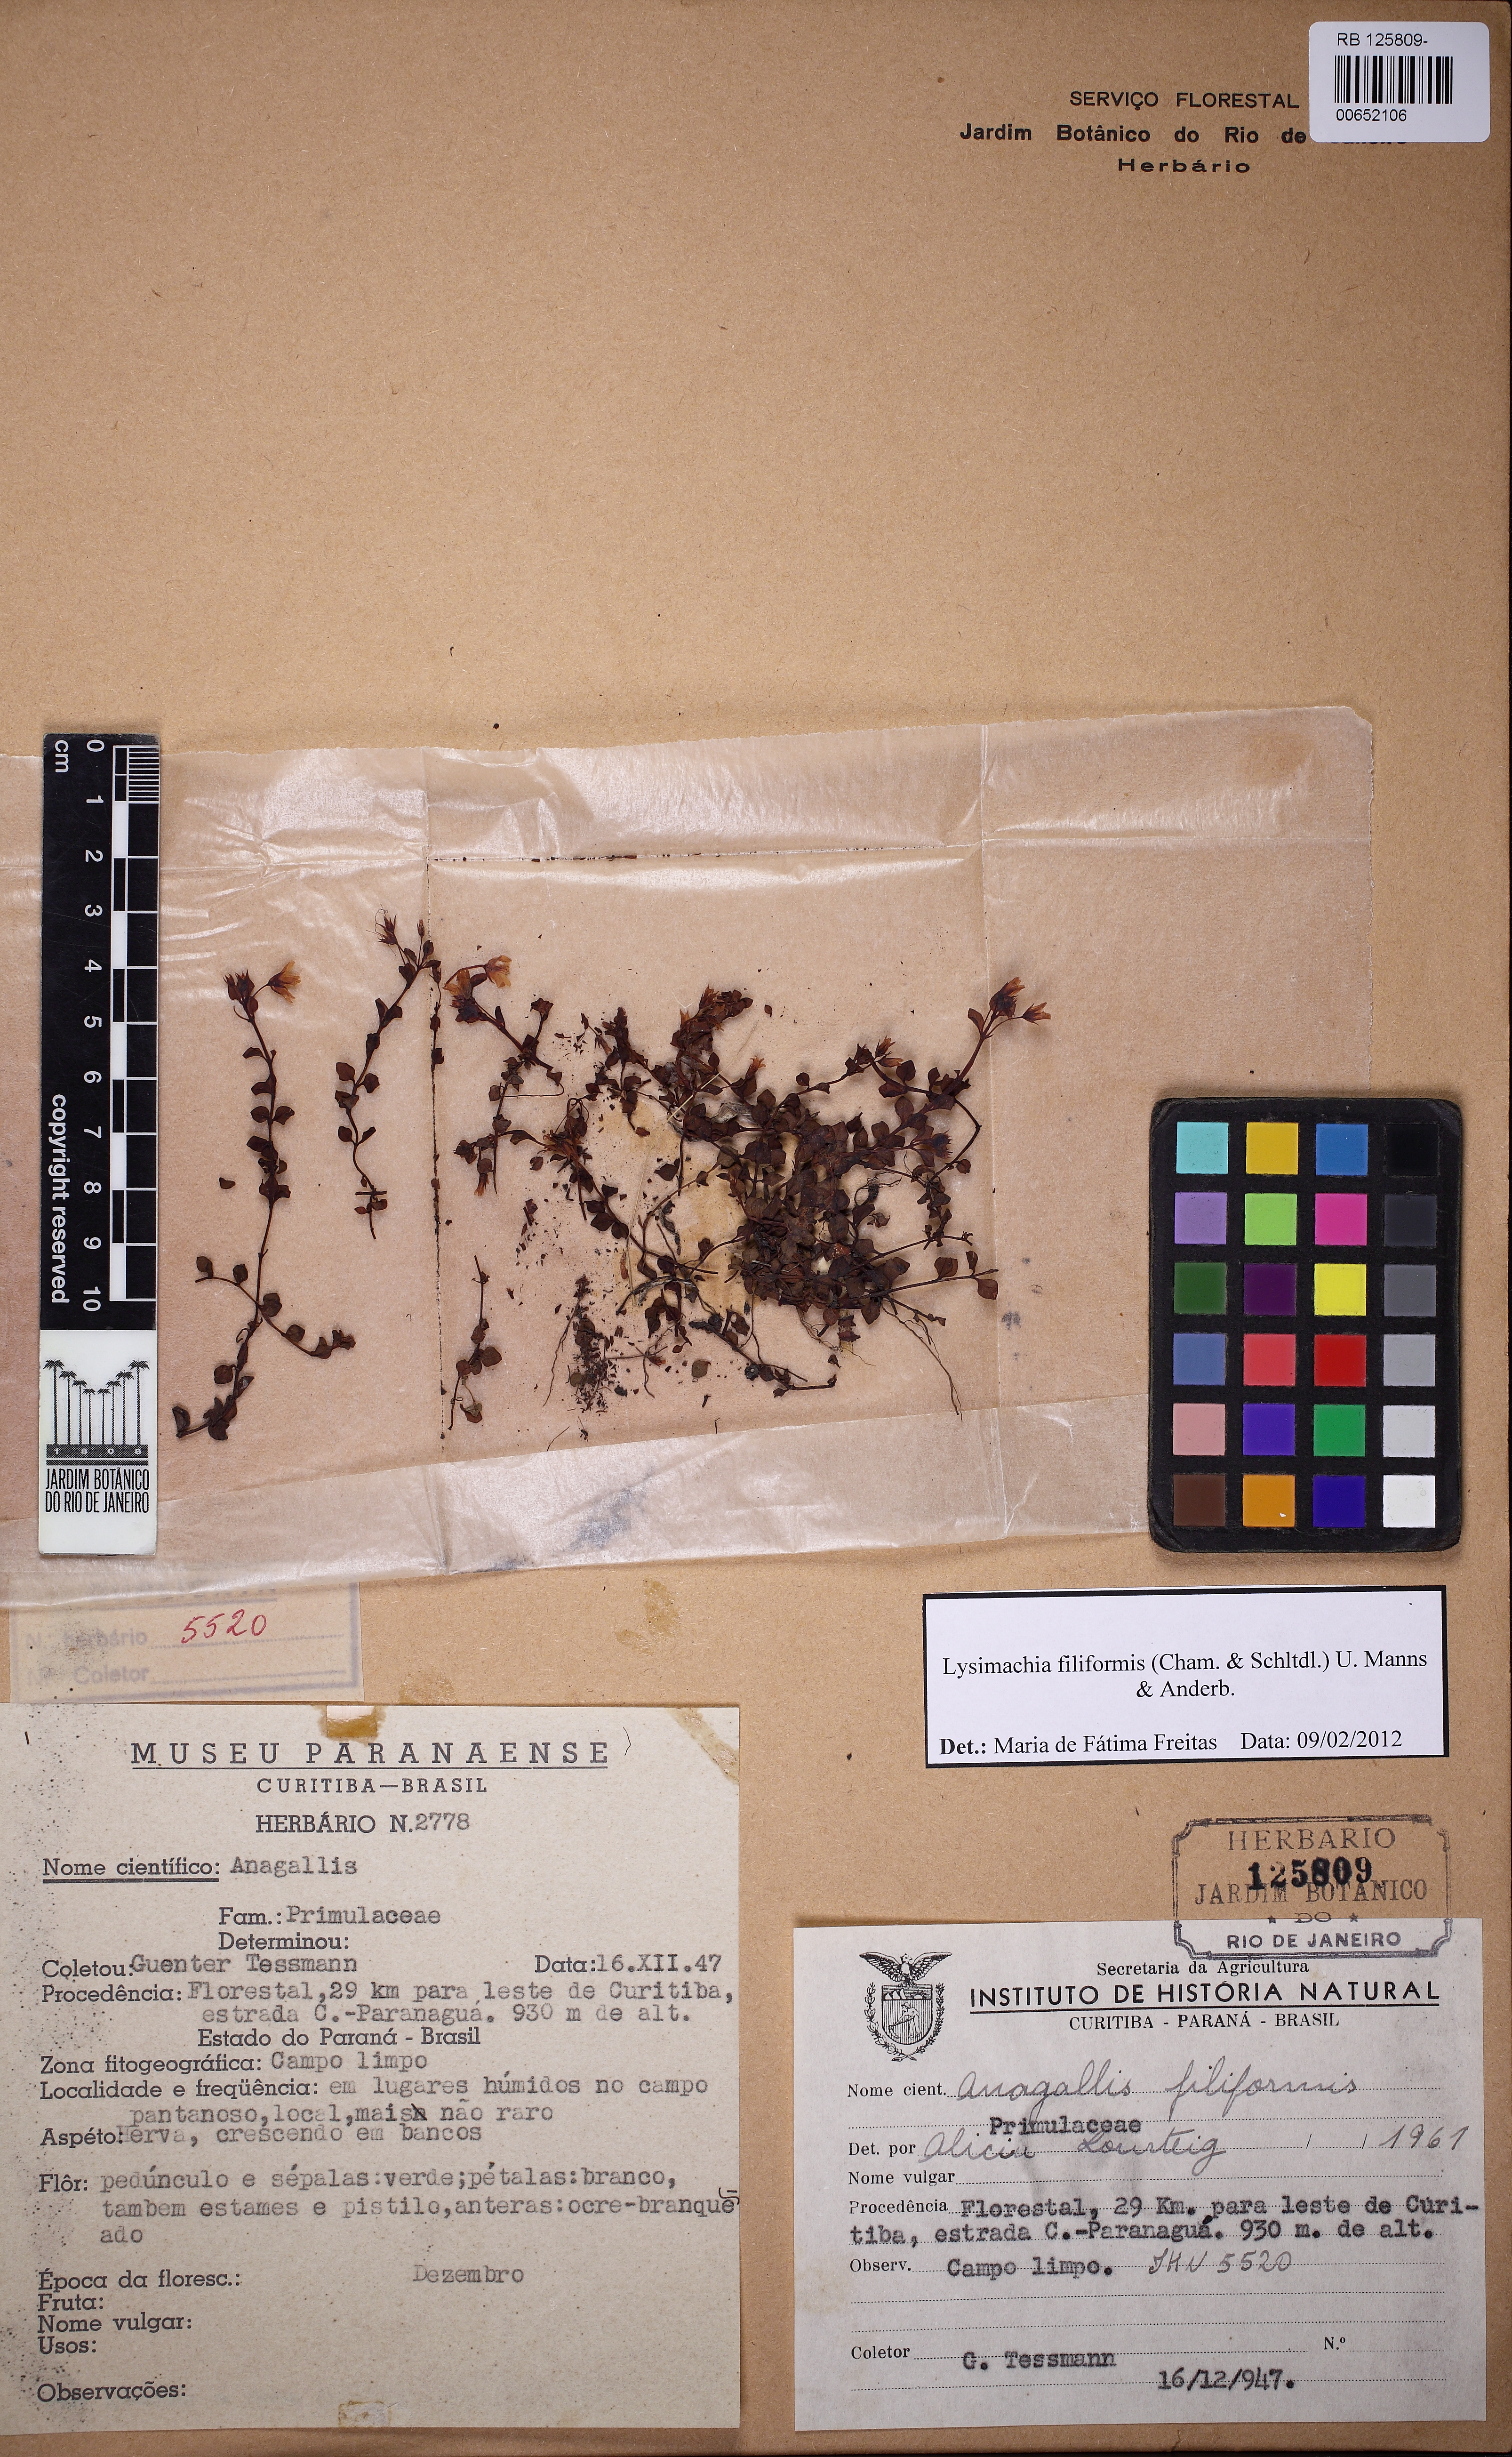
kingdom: Plantae
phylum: Tracheophyta
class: Magnoliopsida
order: Ericales
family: Primulaceae
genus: Lysimachia
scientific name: Lysimachia filiformis
